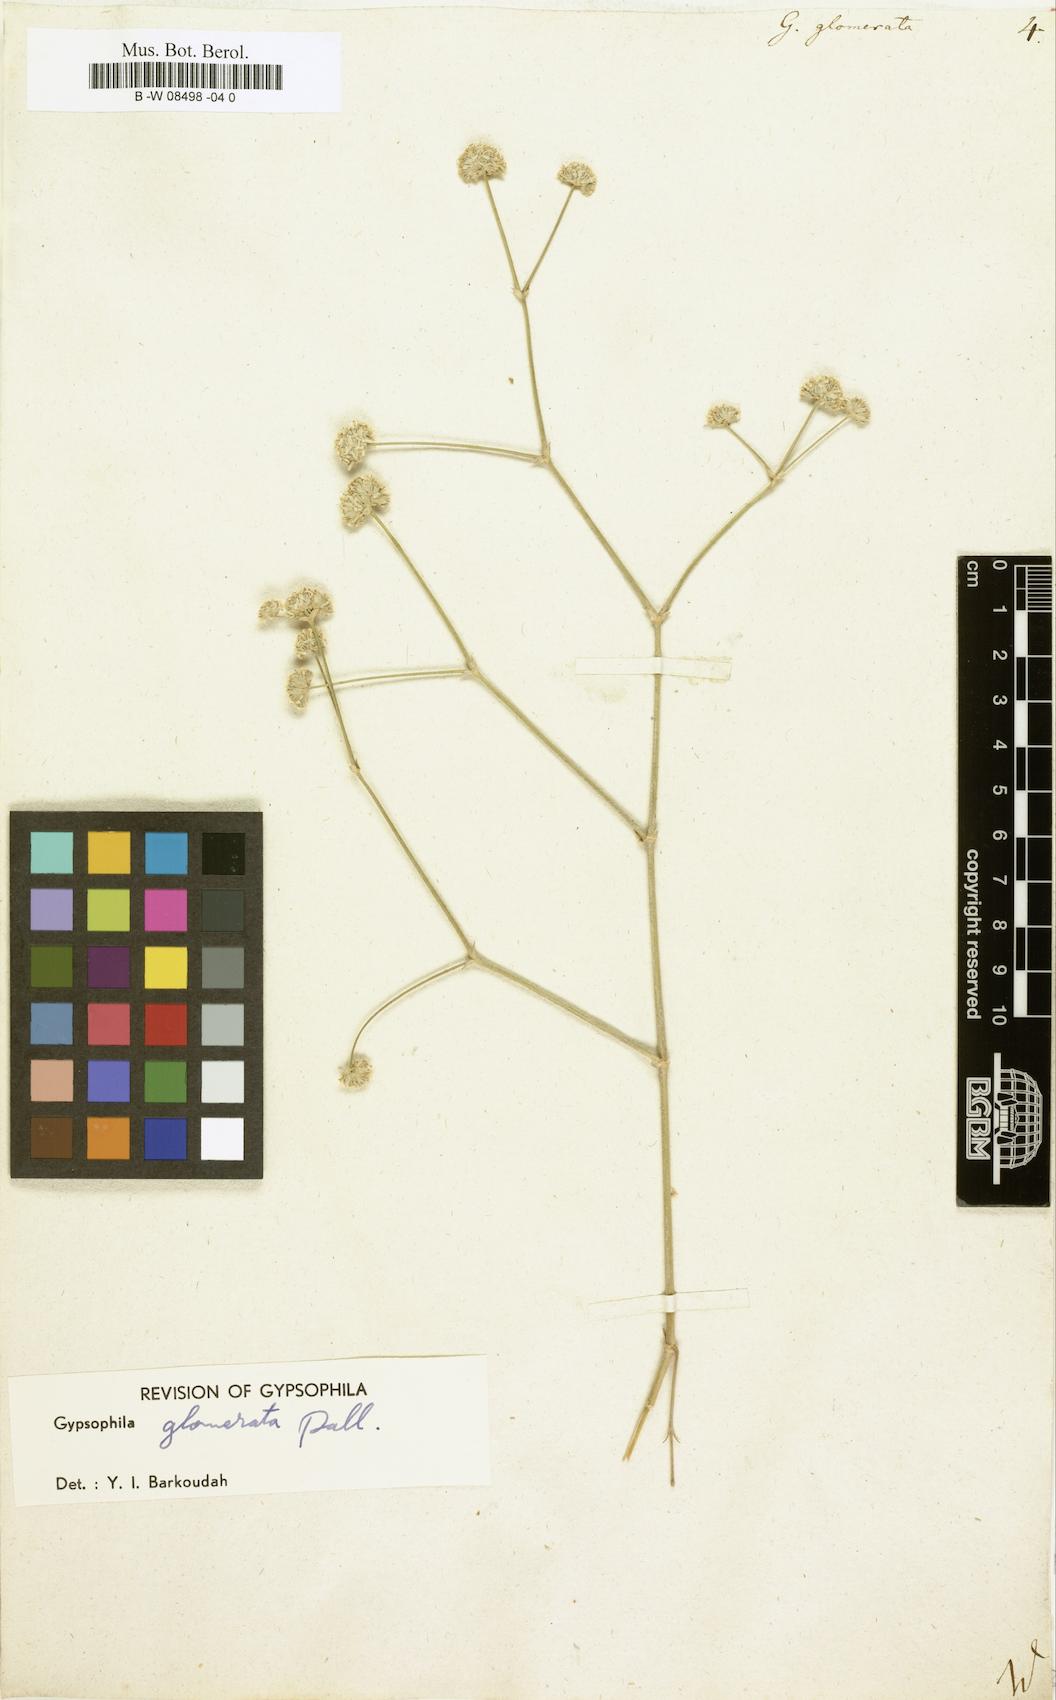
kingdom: Plantae
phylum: Tracheophyta
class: Magnoliopsida
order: Caryophyllales
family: Caryophyllaceae
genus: Gypsophila
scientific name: Gypsophila glomerata
